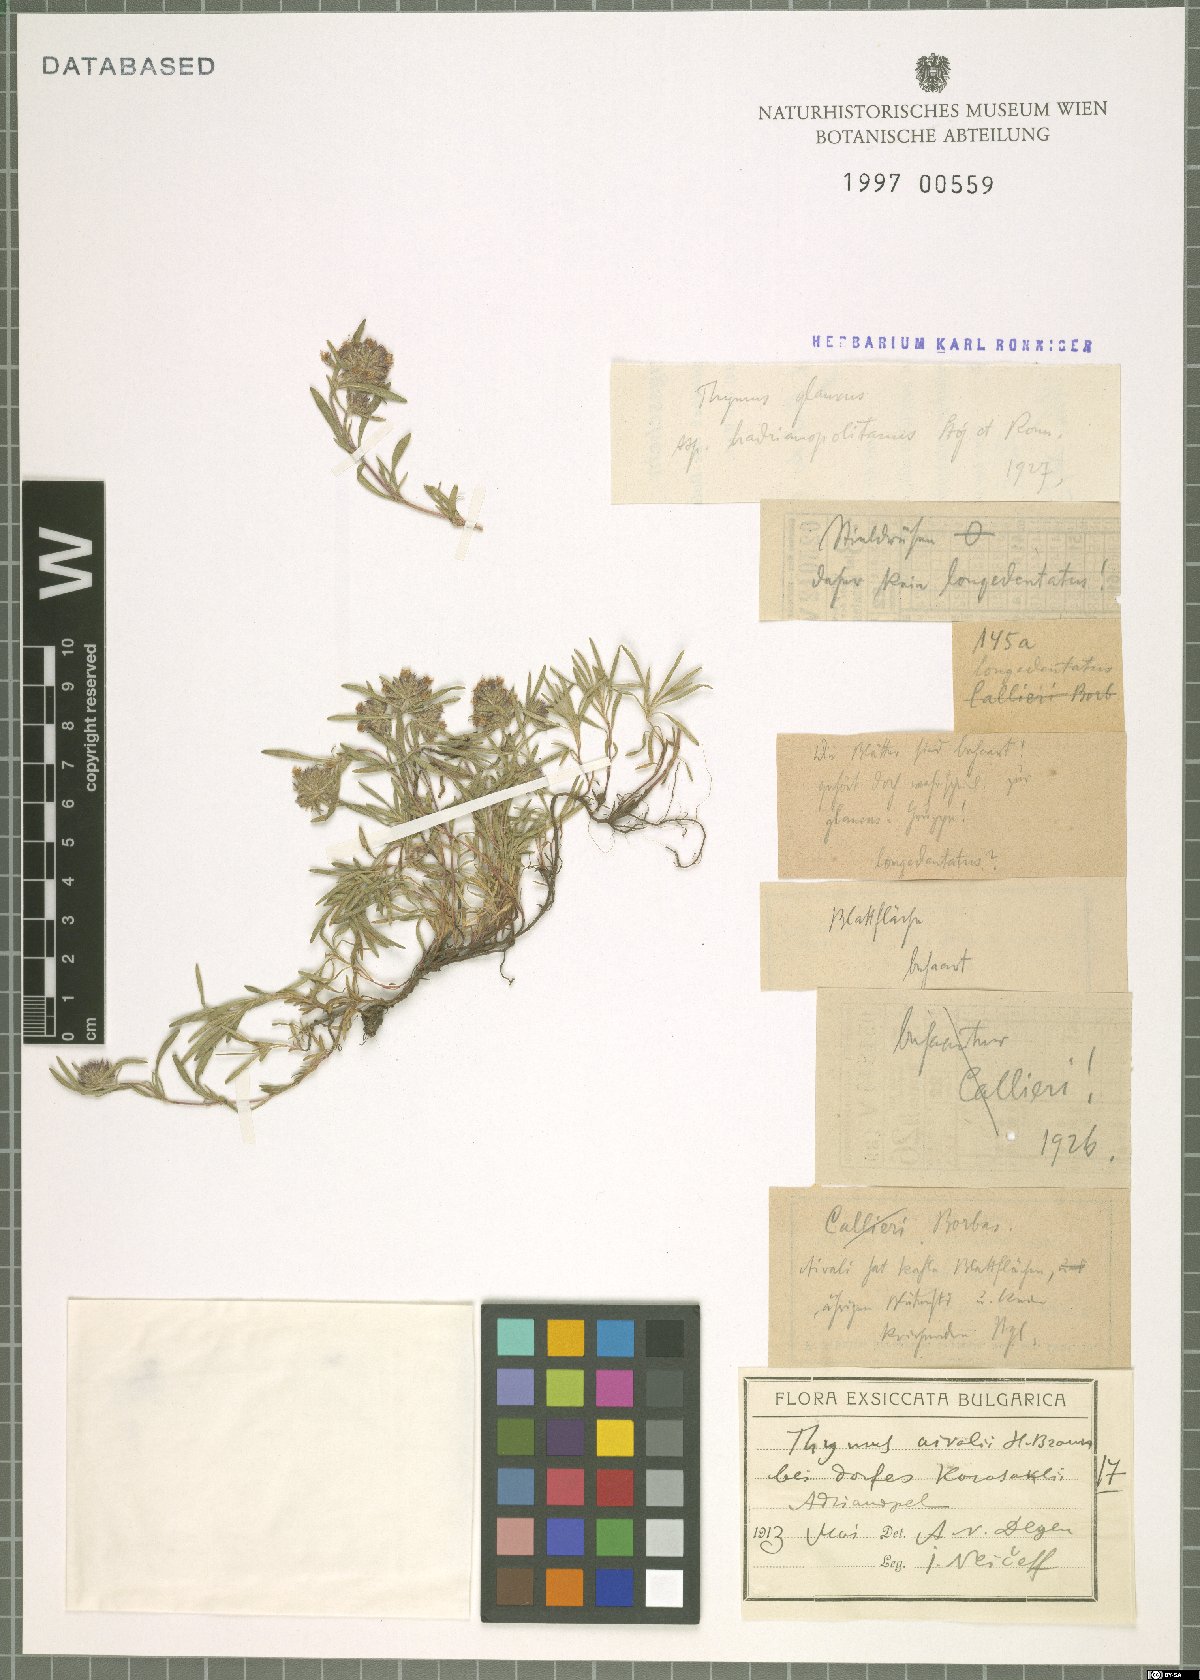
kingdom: Plantae
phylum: Tracheophyta
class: Magnoliopsida
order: Lamiales
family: Lamiaceae
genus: Thymus
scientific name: Thymus longedentatus
